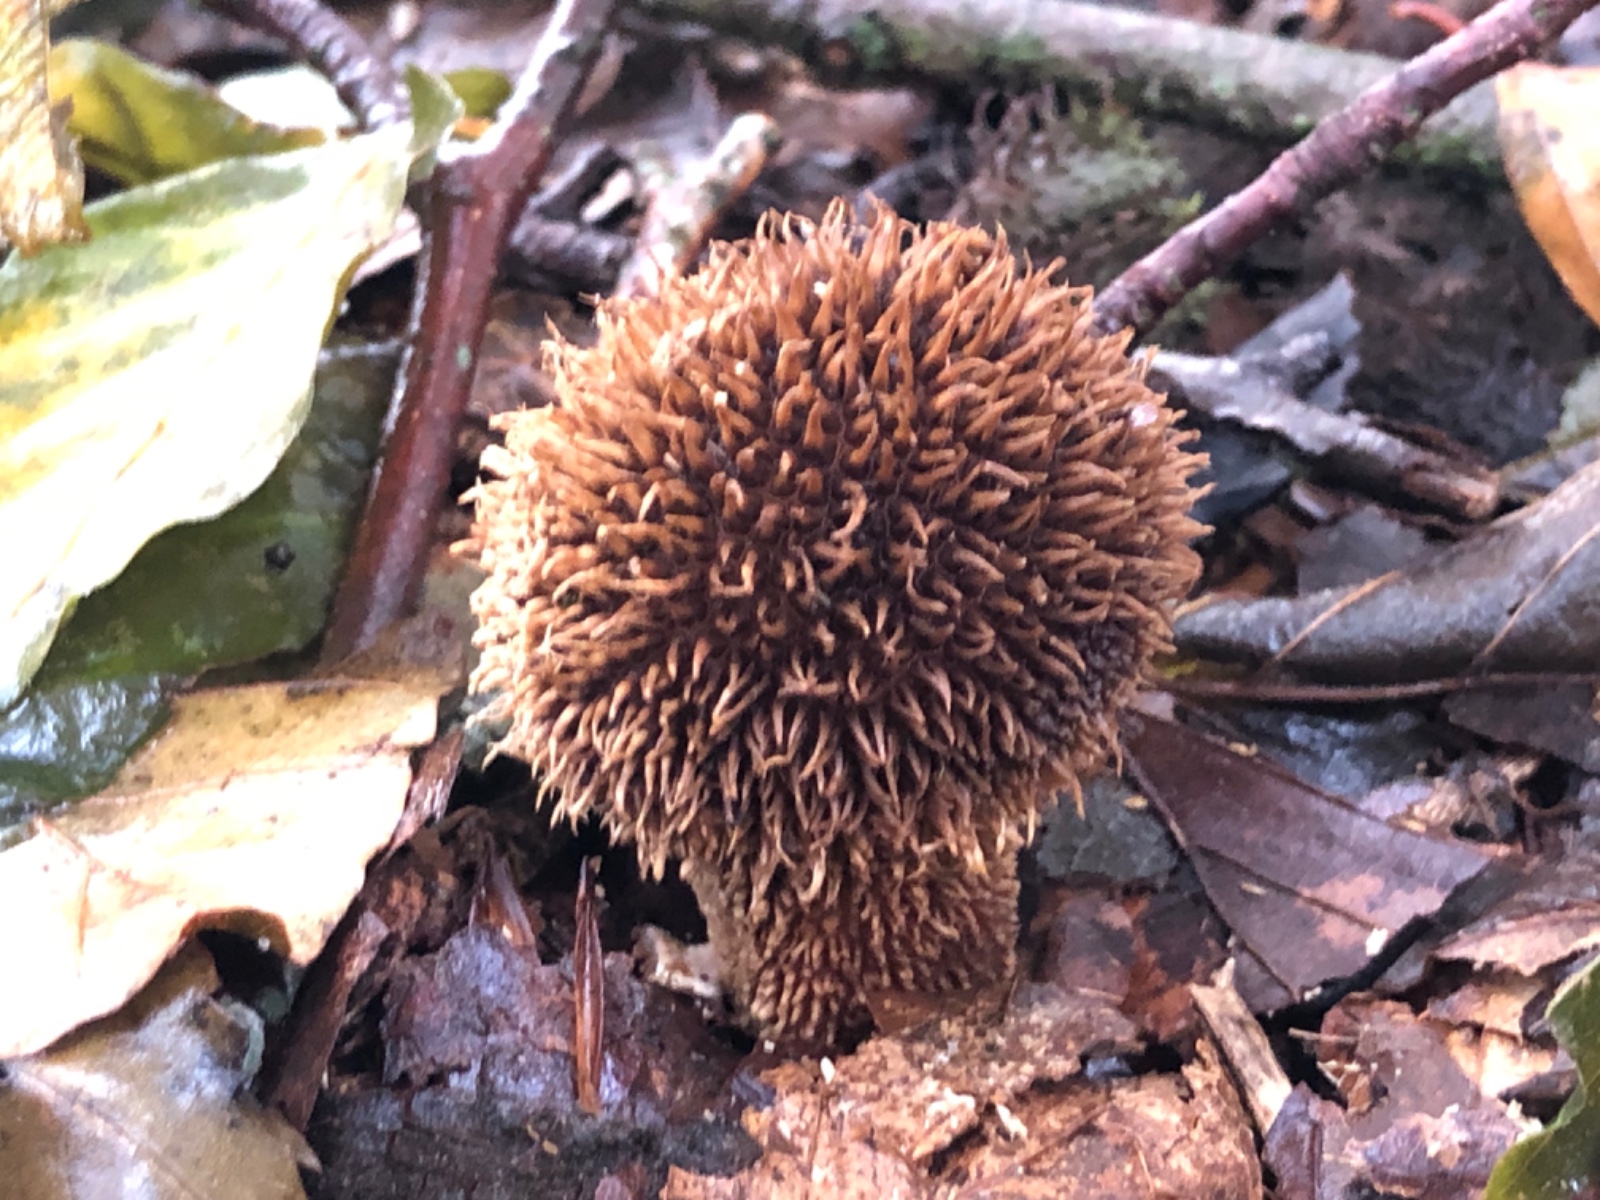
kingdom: Fungi
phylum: Basidiomycota
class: Agaricomycetes
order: Agaricales
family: Lycoperdaceae
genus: Lycoperdon
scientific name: Lycoperdon echinatum
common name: pindsvine-støvbold
